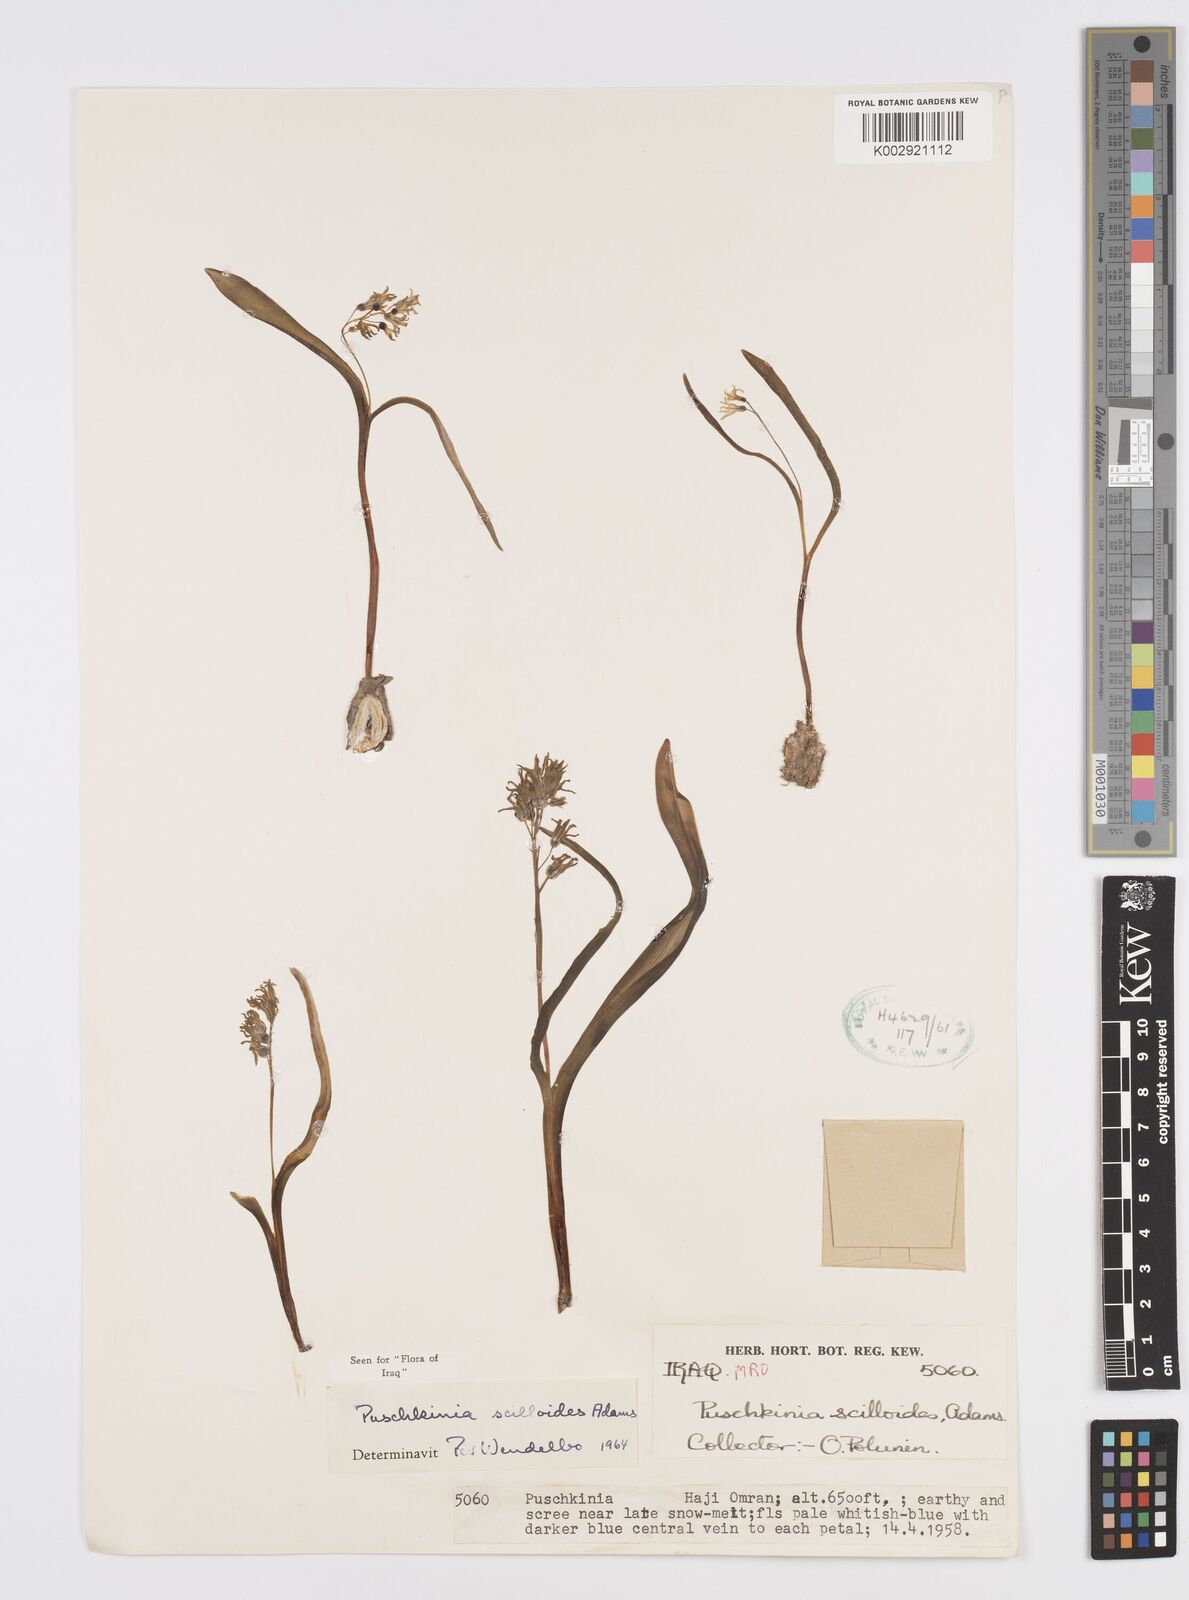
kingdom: Plantae
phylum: Tracheophyta
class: Liliopsida
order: Asparagales
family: Asparagaceae
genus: Puschkinia
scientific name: Puschkinia scilloides
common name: Striped squill
